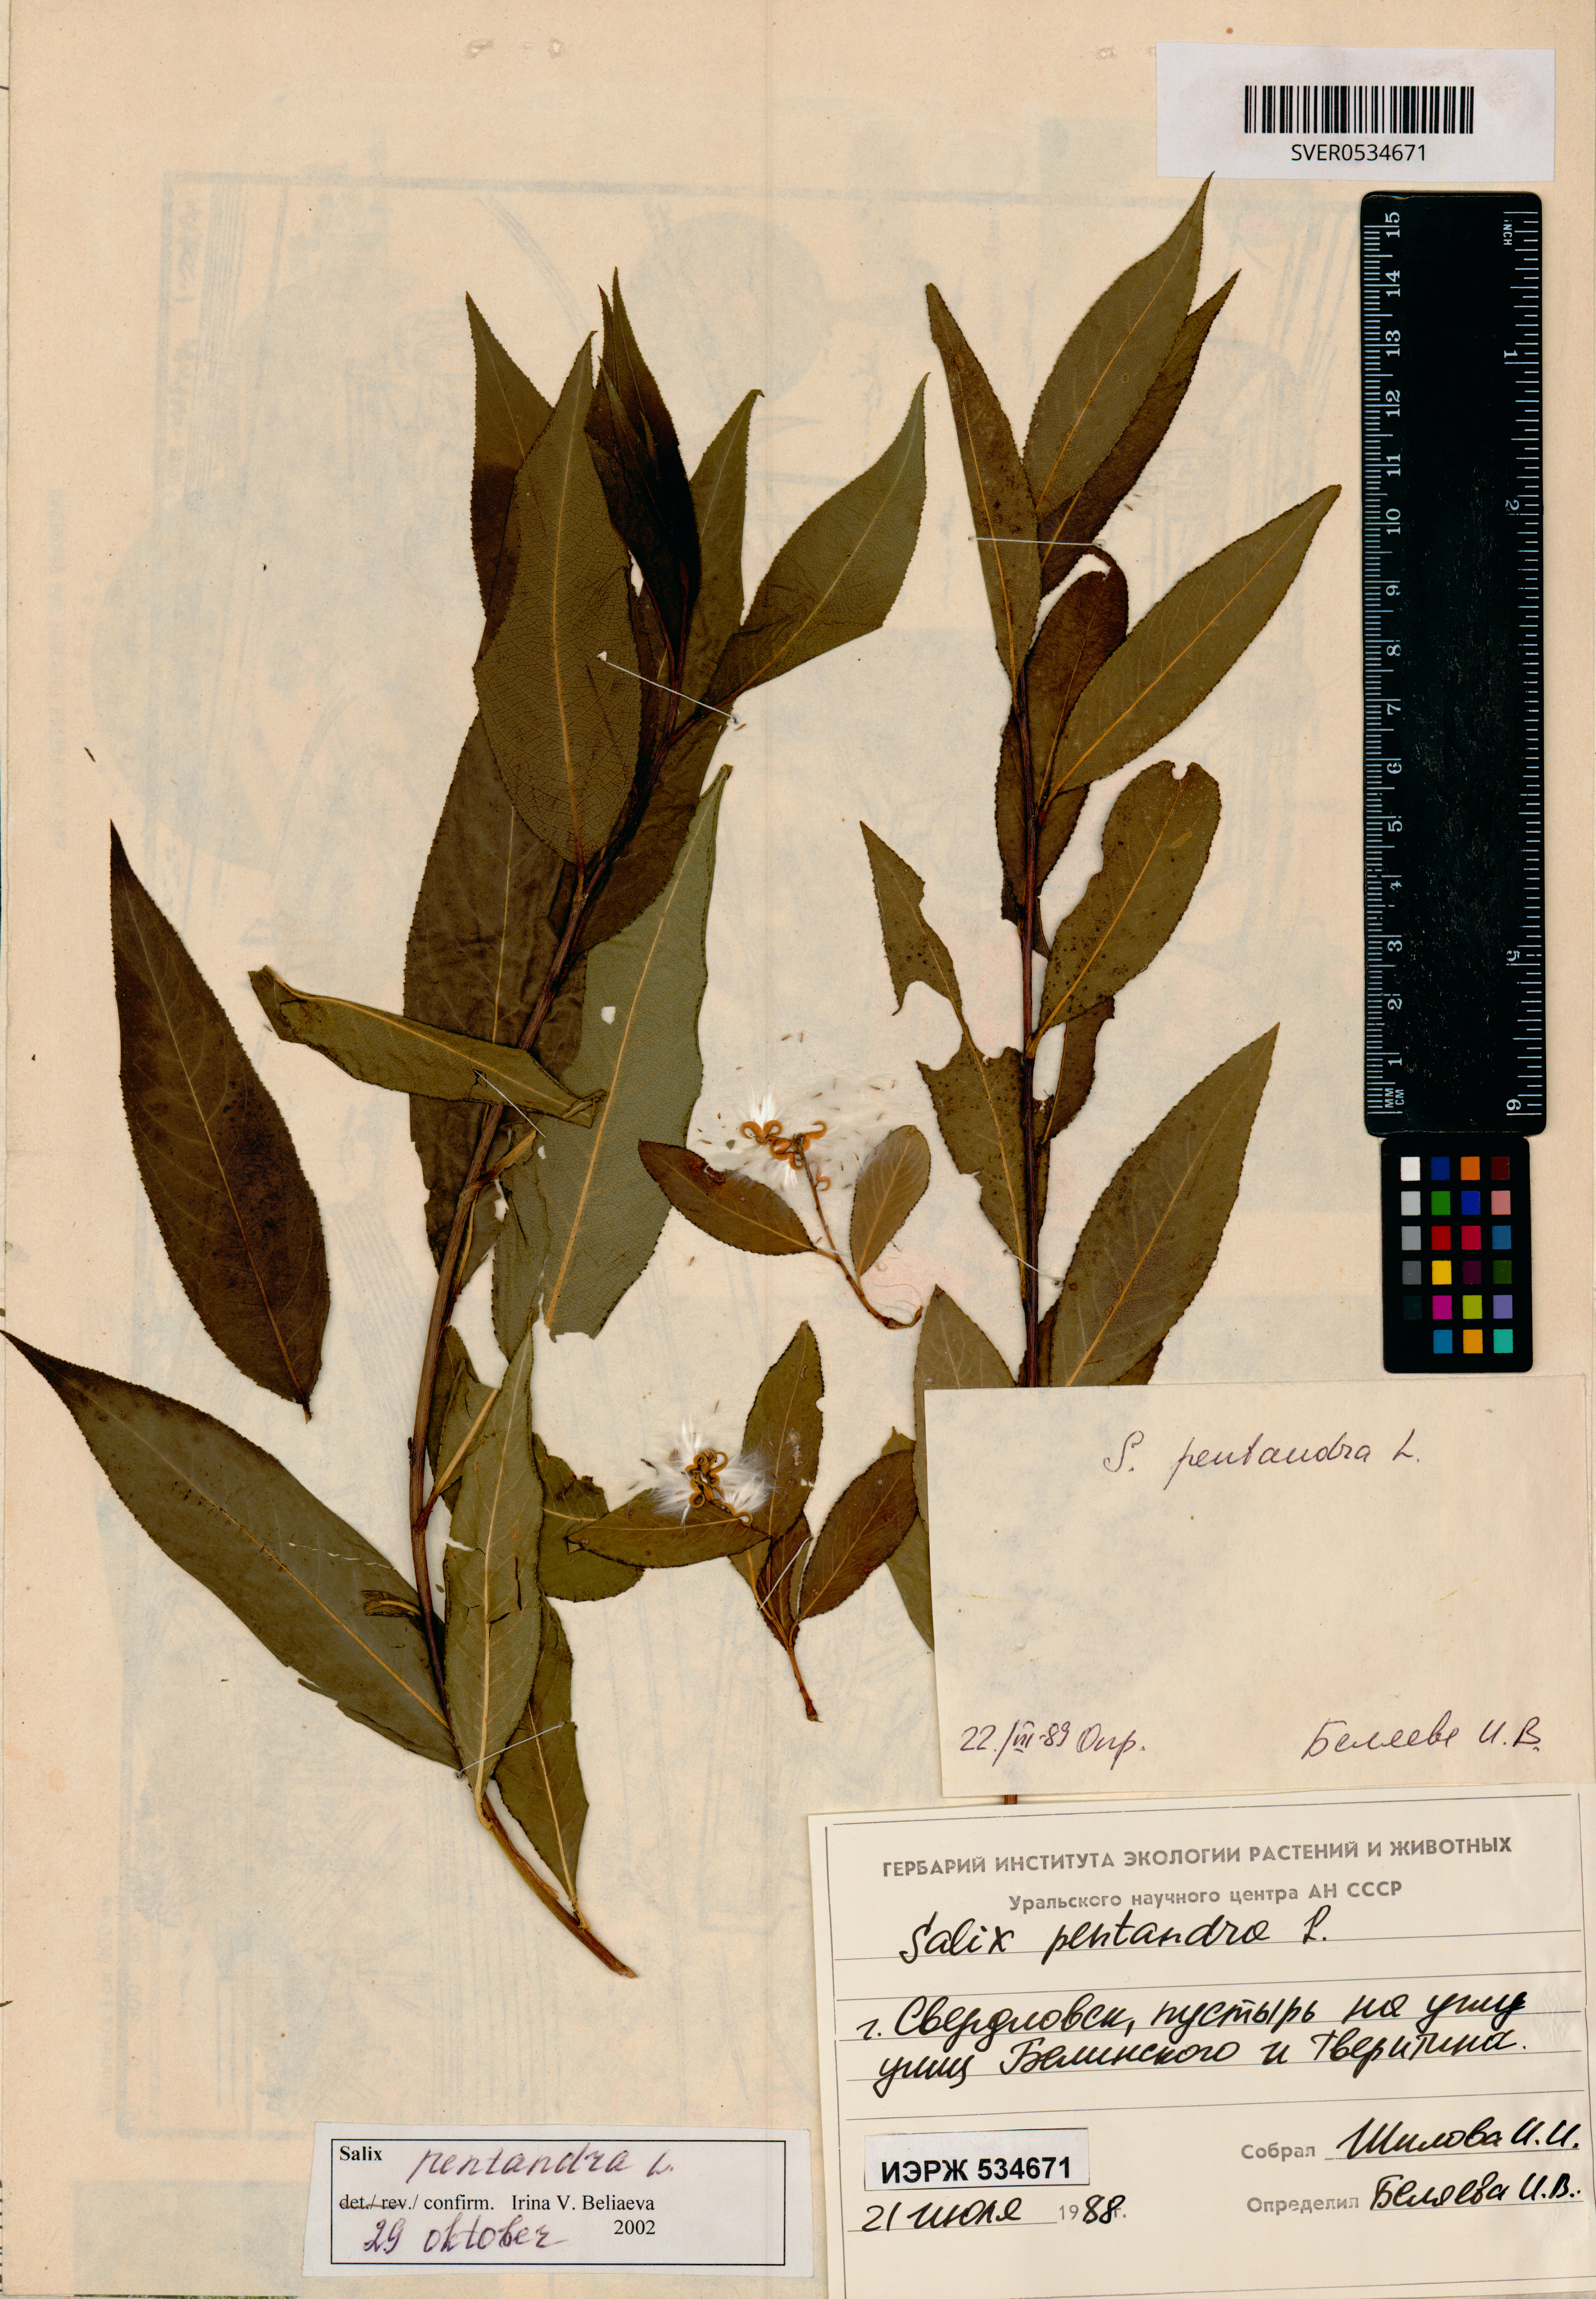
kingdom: Plantae
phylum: Tracheophyta
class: Magnoliopsida
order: Malpighiales
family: Salicaceae
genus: Salix
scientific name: Salix pentandra
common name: Bay willow
